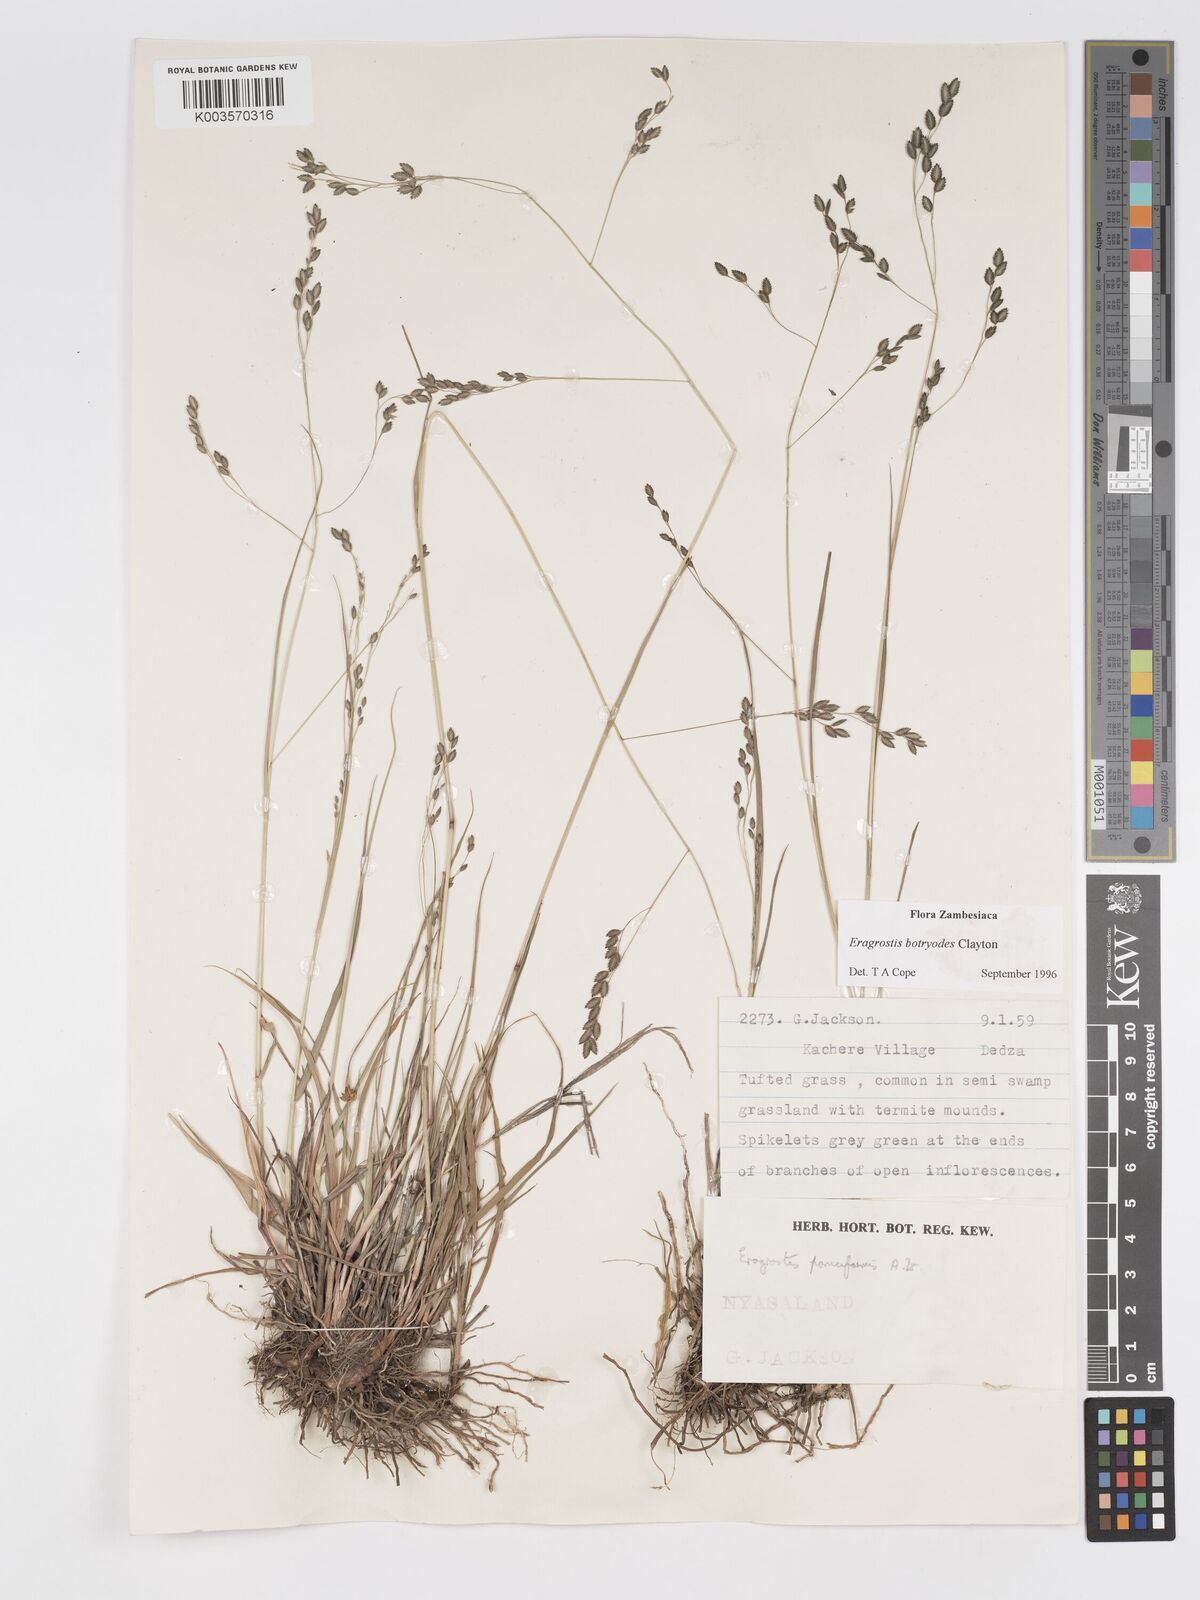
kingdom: Plantae
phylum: Tracheophyta
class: Liliopsida
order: Poales
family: Poaceae
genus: Eragrostis
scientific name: Eragrostis botryodes
